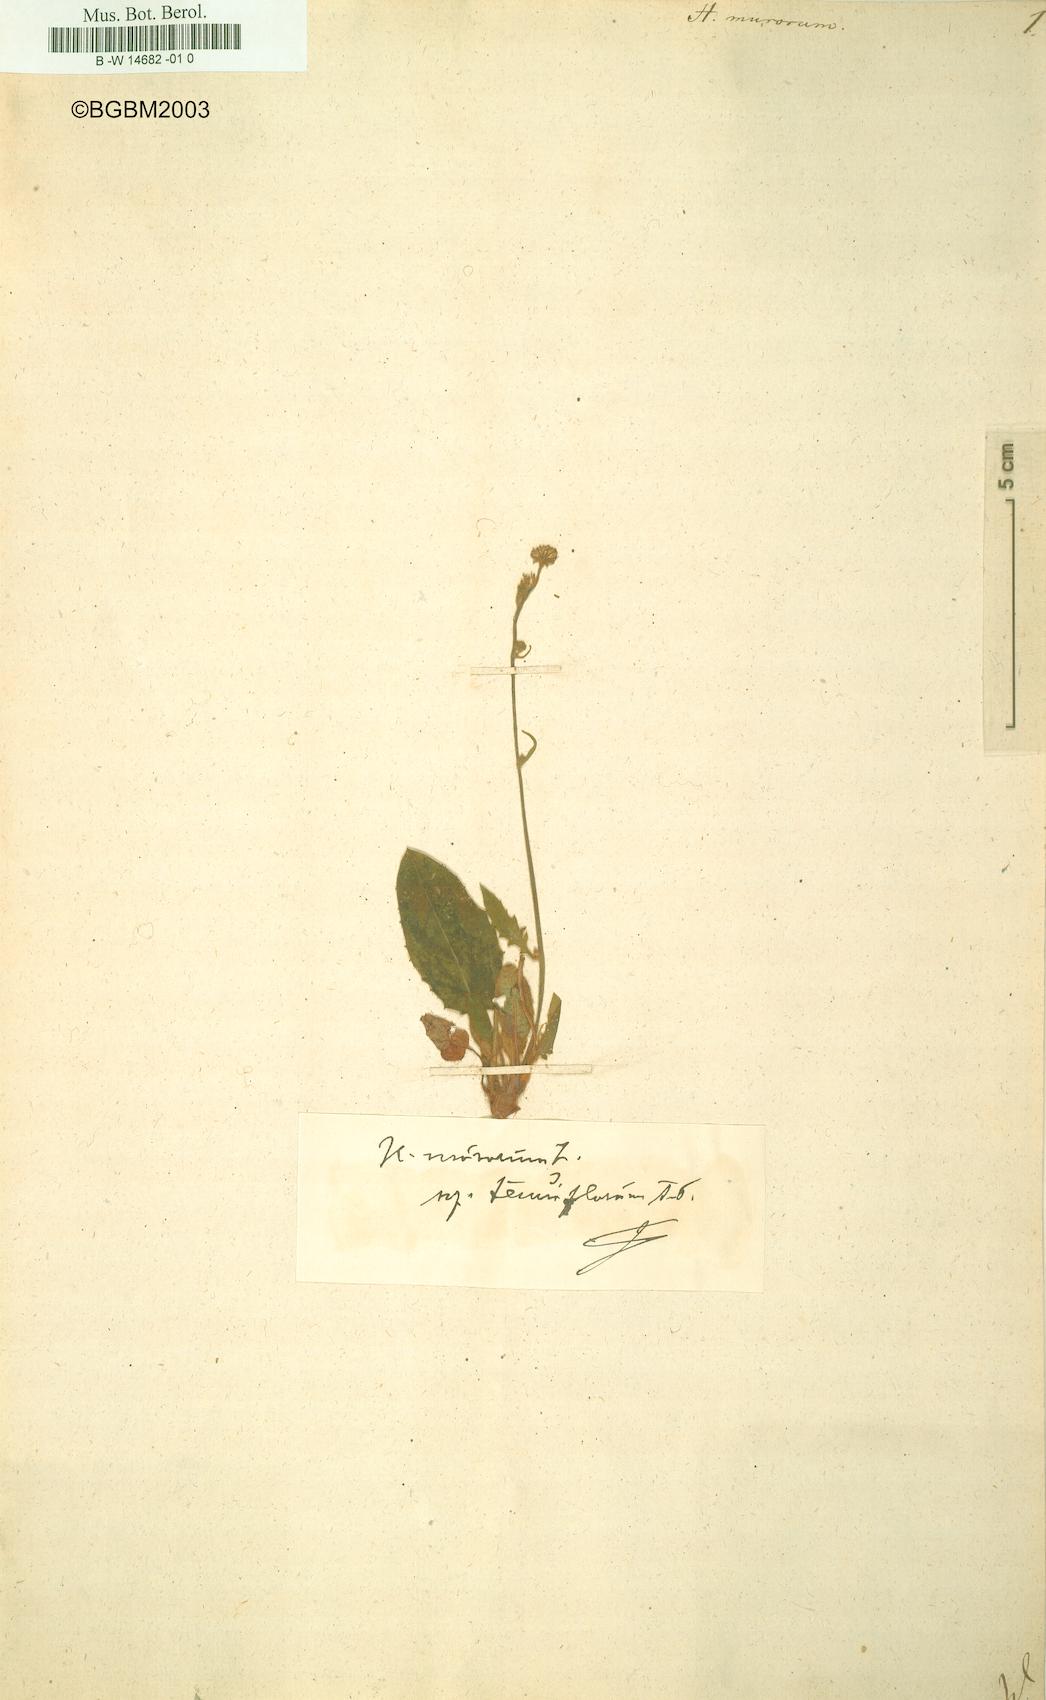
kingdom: Plantae
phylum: Tracheophyta
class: Magnoliopsida
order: Asterales
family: Asteraceae
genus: Hieracium
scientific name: Hieracium murorum
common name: Wall hawkweed
